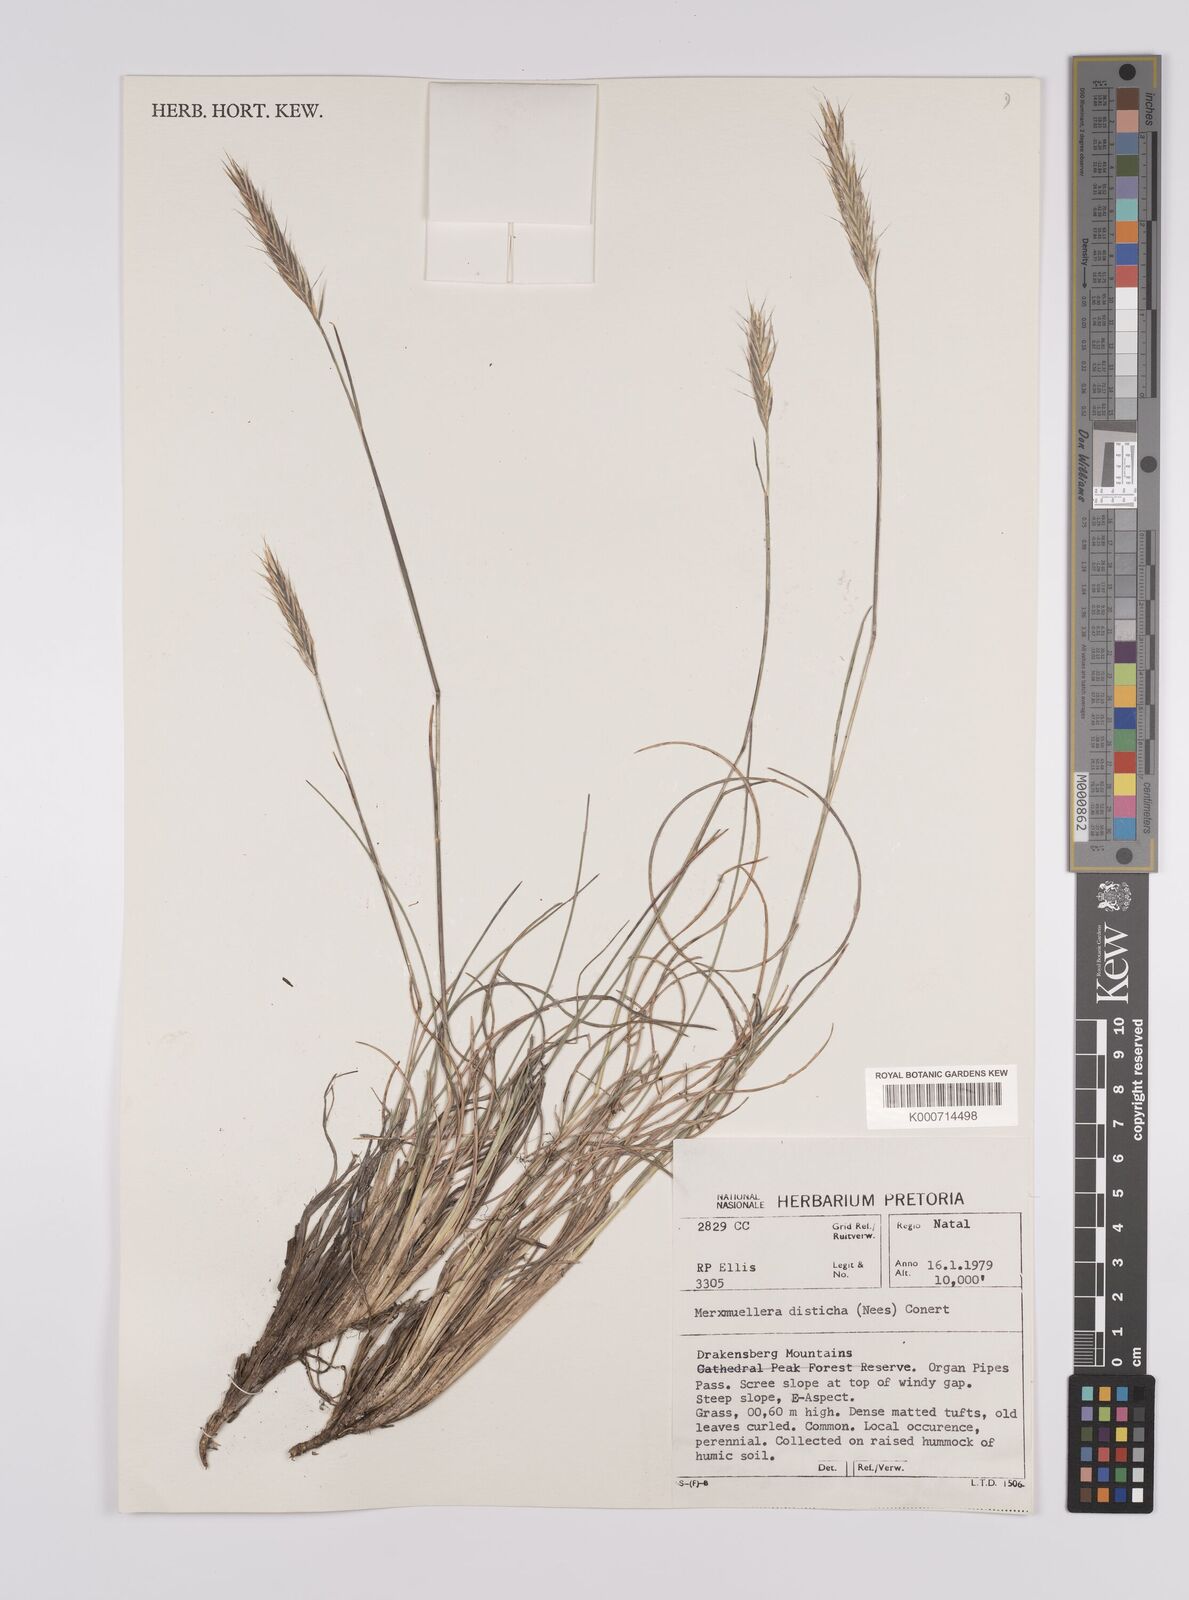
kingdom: Plantae
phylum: Tracheophyta
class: Liliopsida
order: Poales
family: Poaceae
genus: Tenaxia
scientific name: Tenaxia disticha
